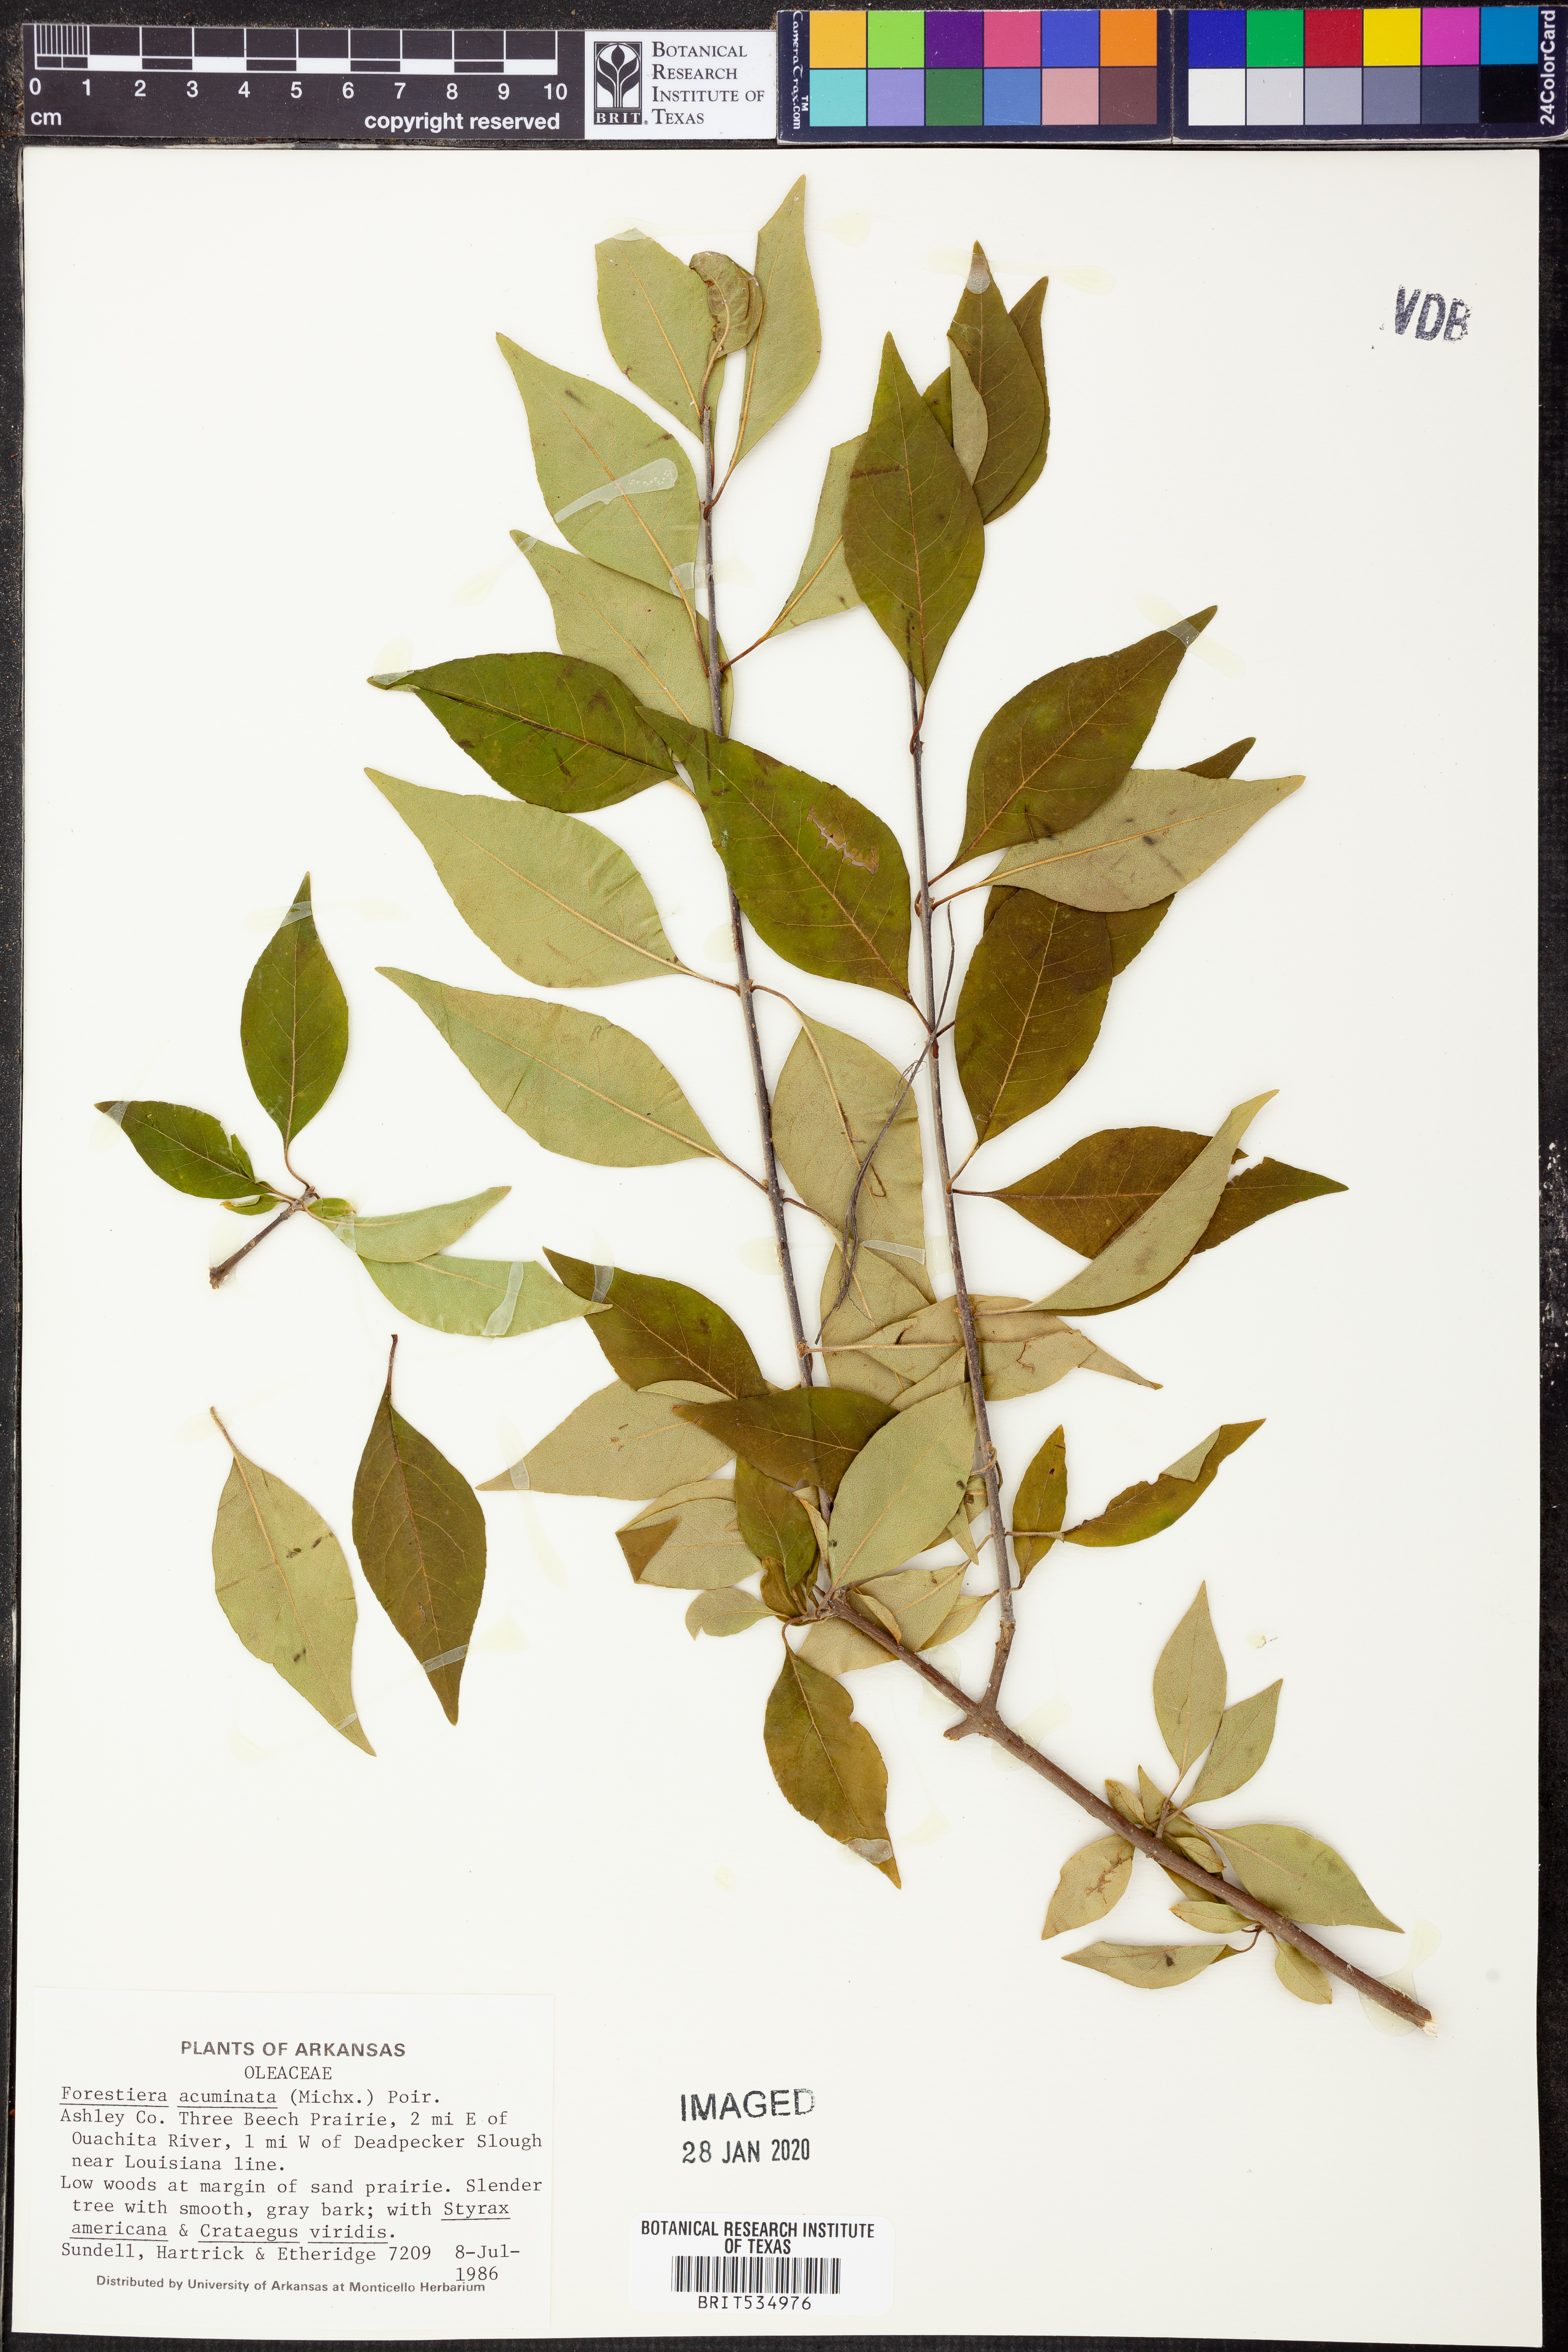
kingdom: Plantae
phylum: Tracheophyta
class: Magnoliopsida
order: Lamiales
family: Oleaceae
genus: Forestiera
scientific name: Forestiera acuminata
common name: Swamp-privet
